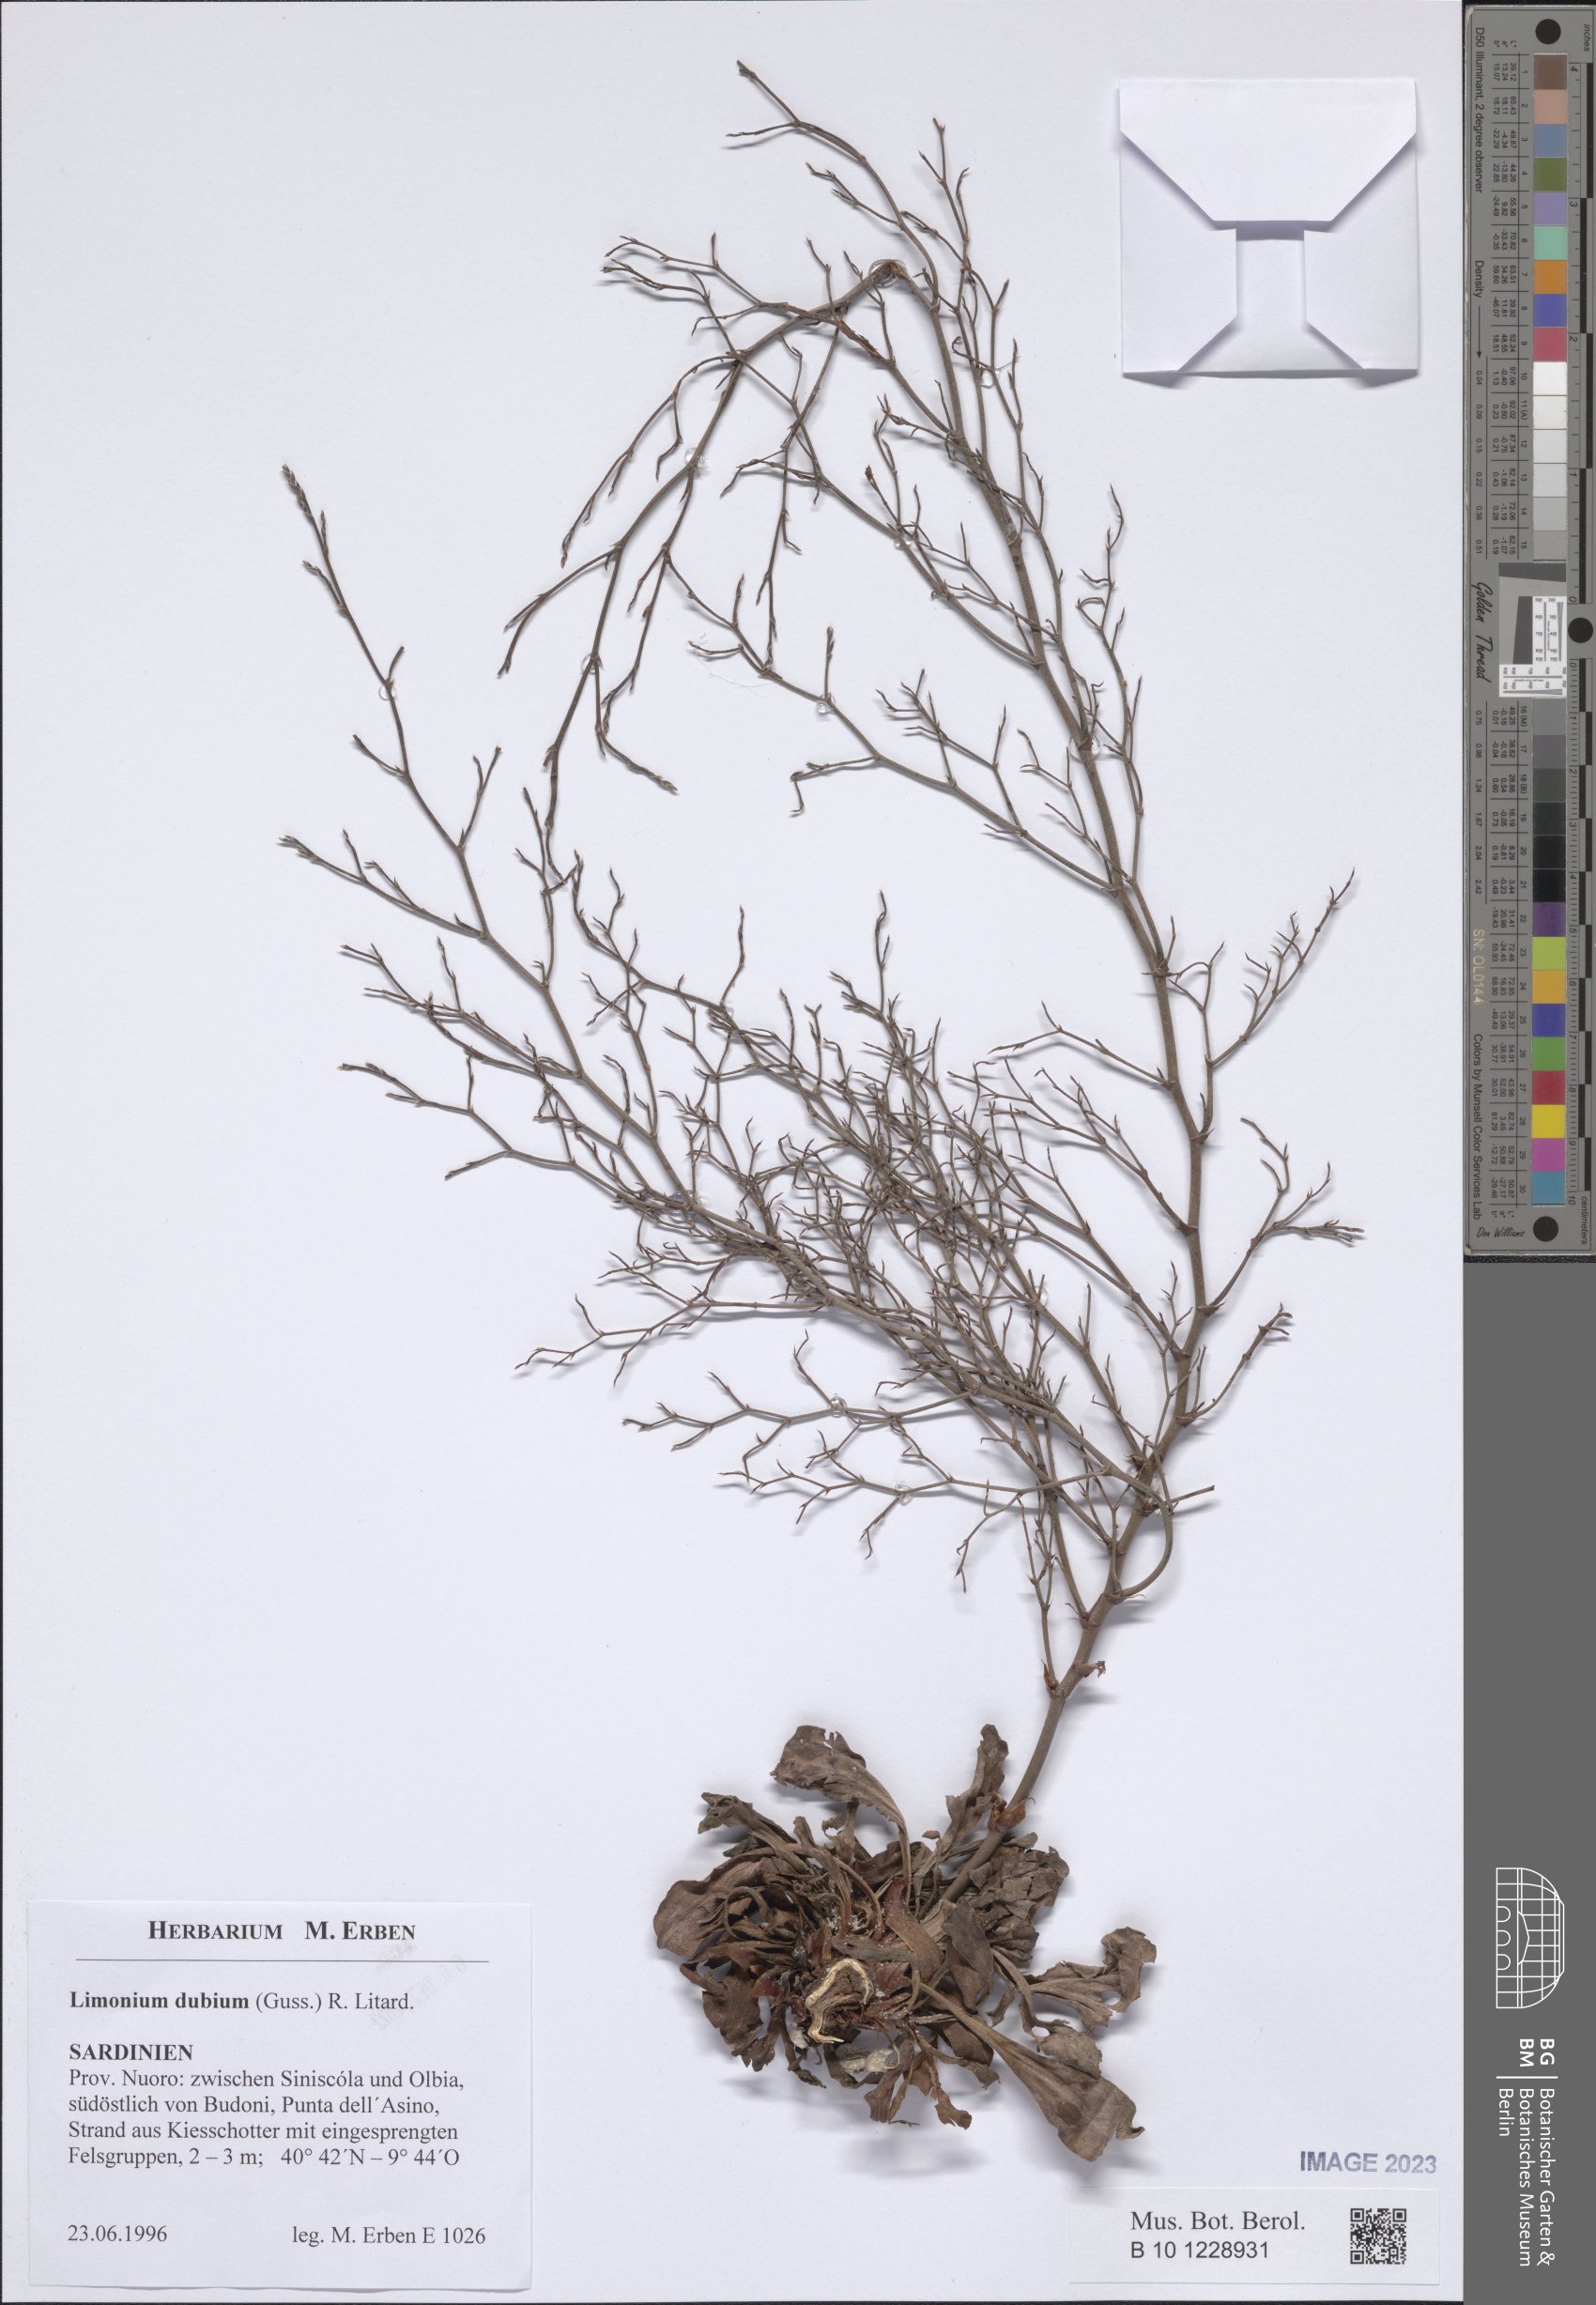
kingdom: Plantae
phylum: Tracheophyta
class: Magnoliopsida
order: Caryophyllales
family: Plumbaginaceae
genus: Limonium
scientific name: Limonium dubium
